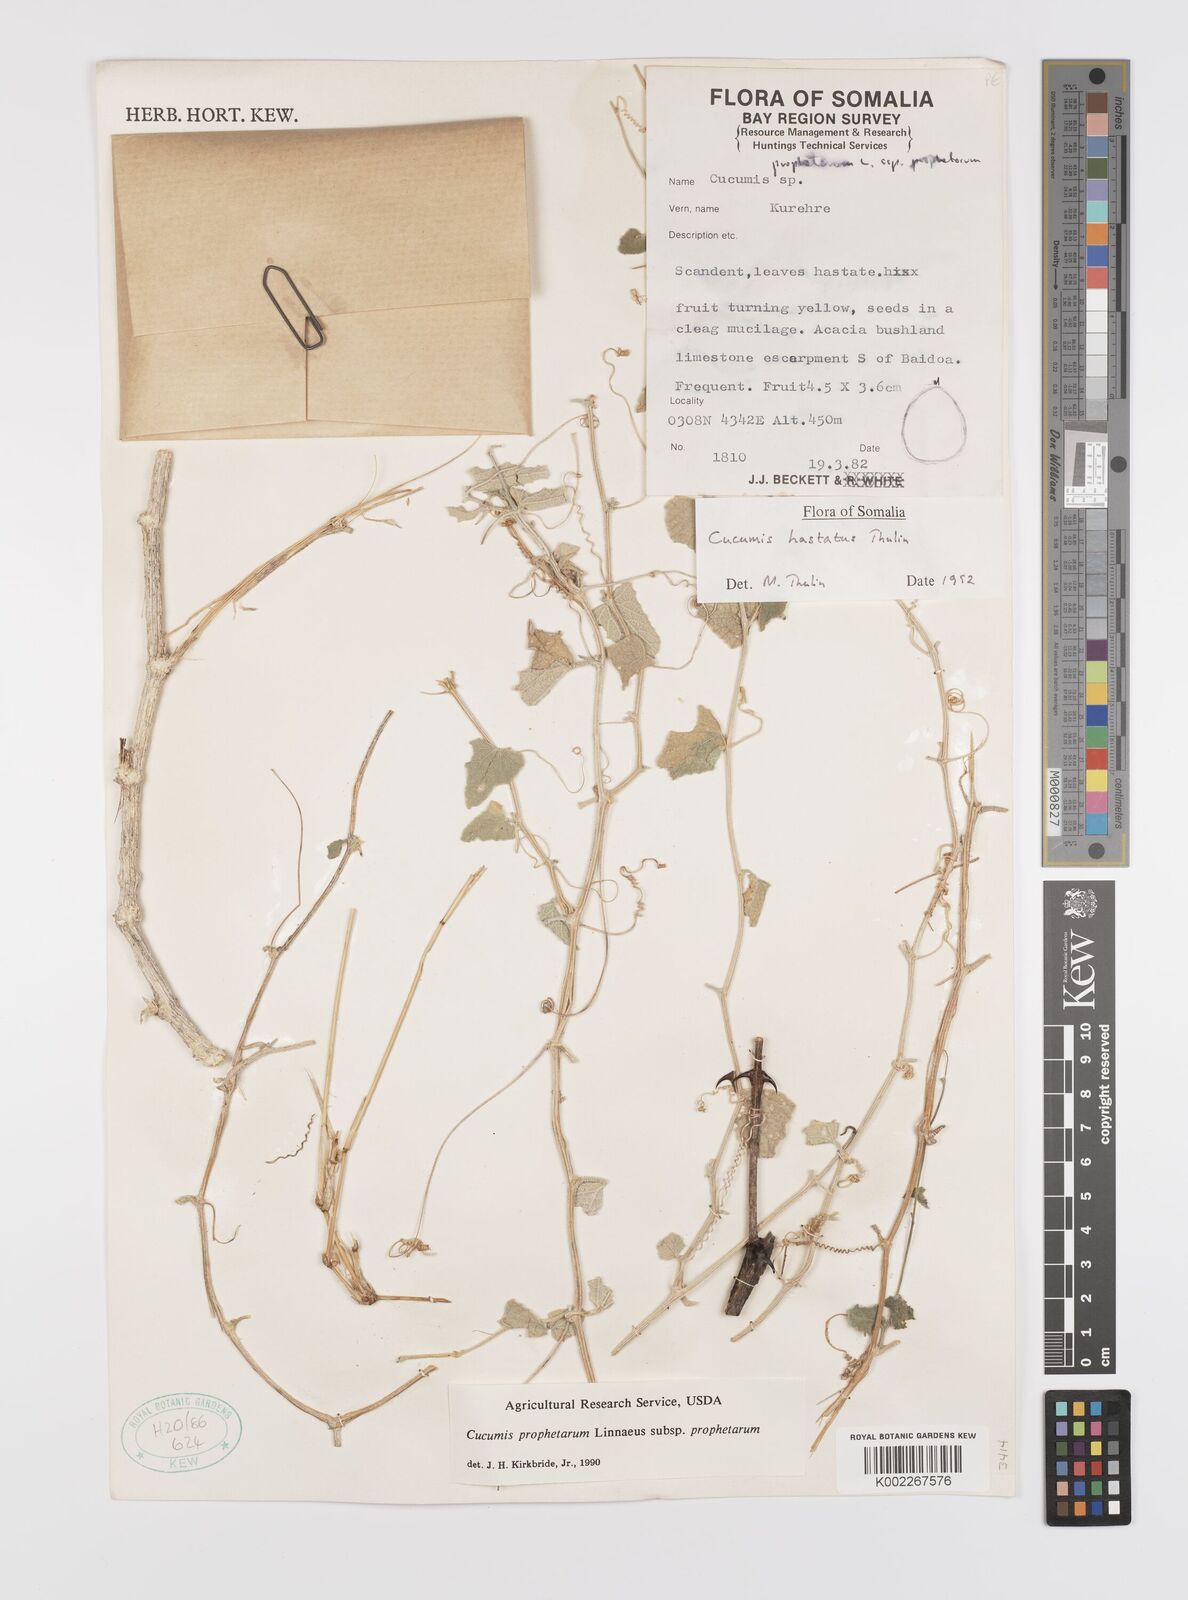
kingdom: Plantae
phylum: Tracheophyta
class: Magnoliopsida
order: Cucurbitales
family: Cucurbitaceae
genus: Cucumis
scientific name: Cucumis hastatus
